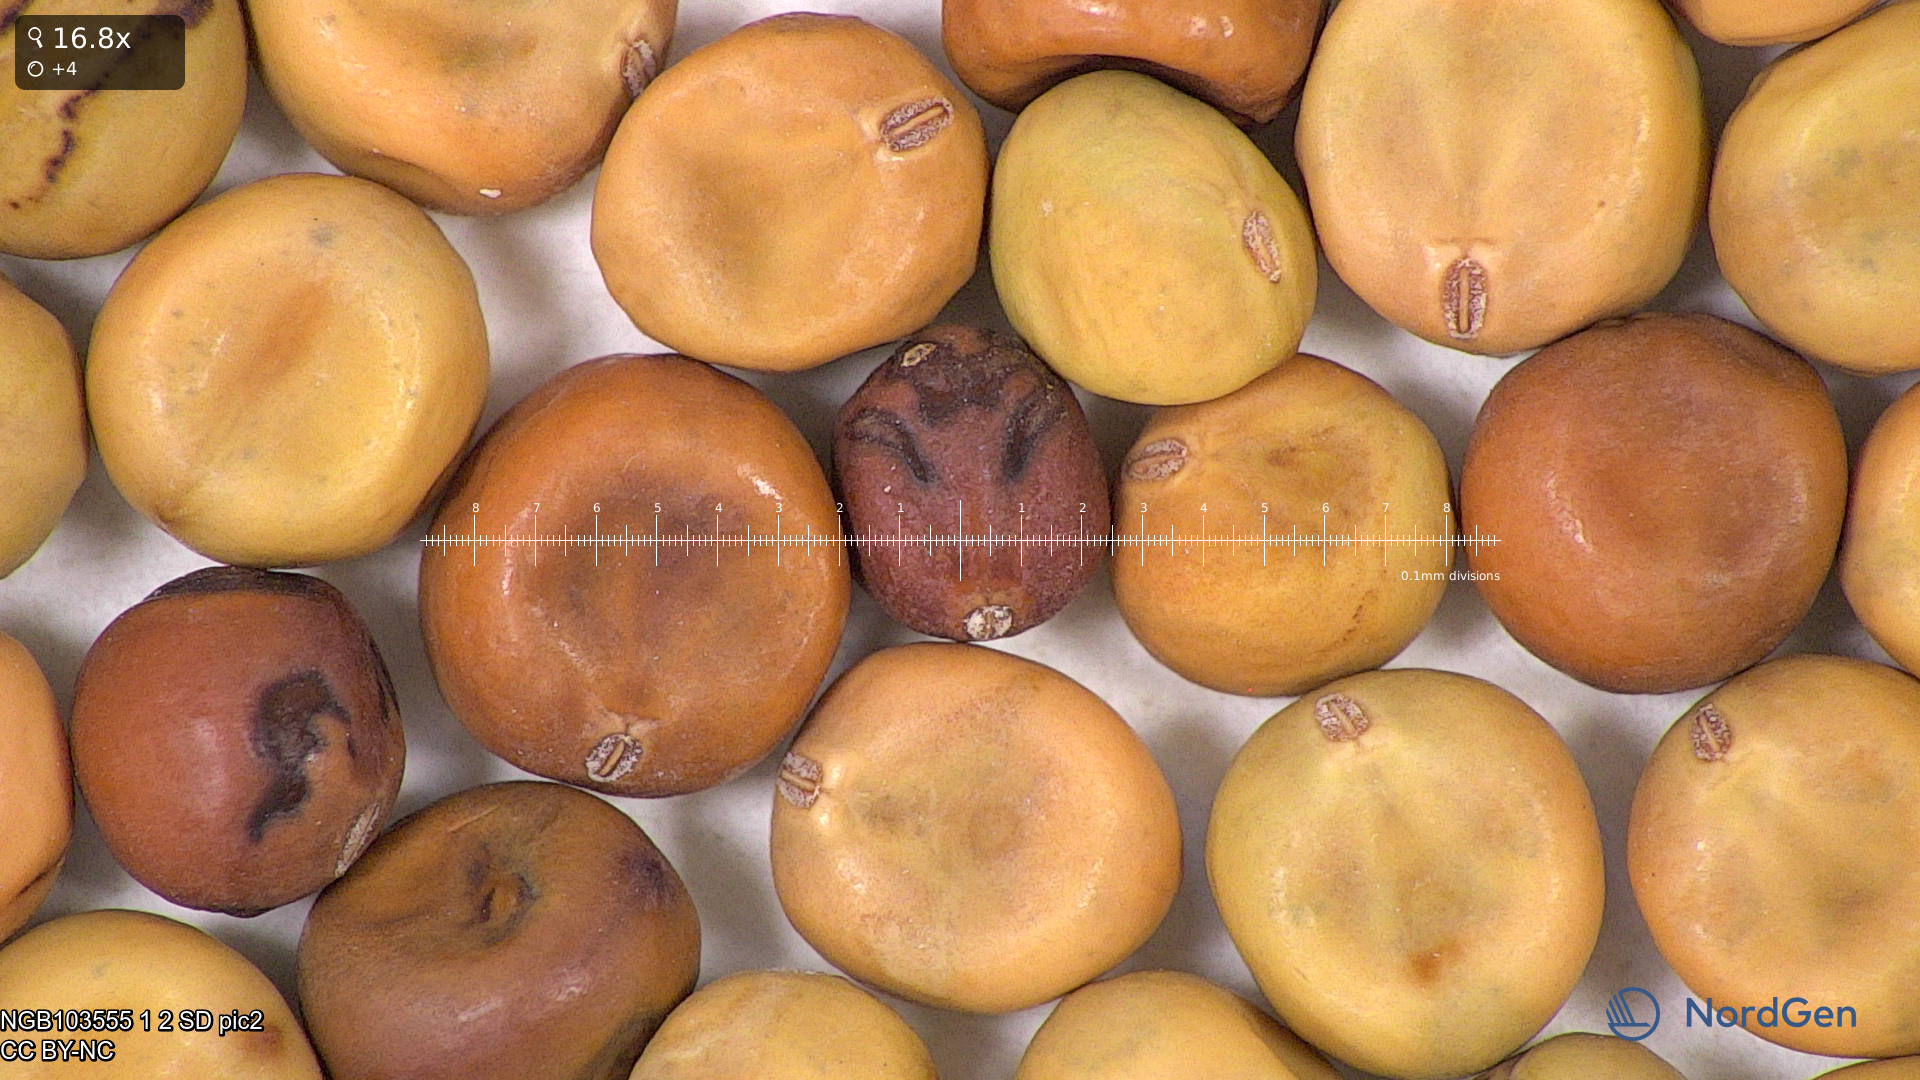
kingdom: Plantae
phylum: Tracheophyta
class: Magnoliopsida
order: Fabales
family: Fabaceae
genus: Lathyrus
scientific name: Lathyrus oleraceus
